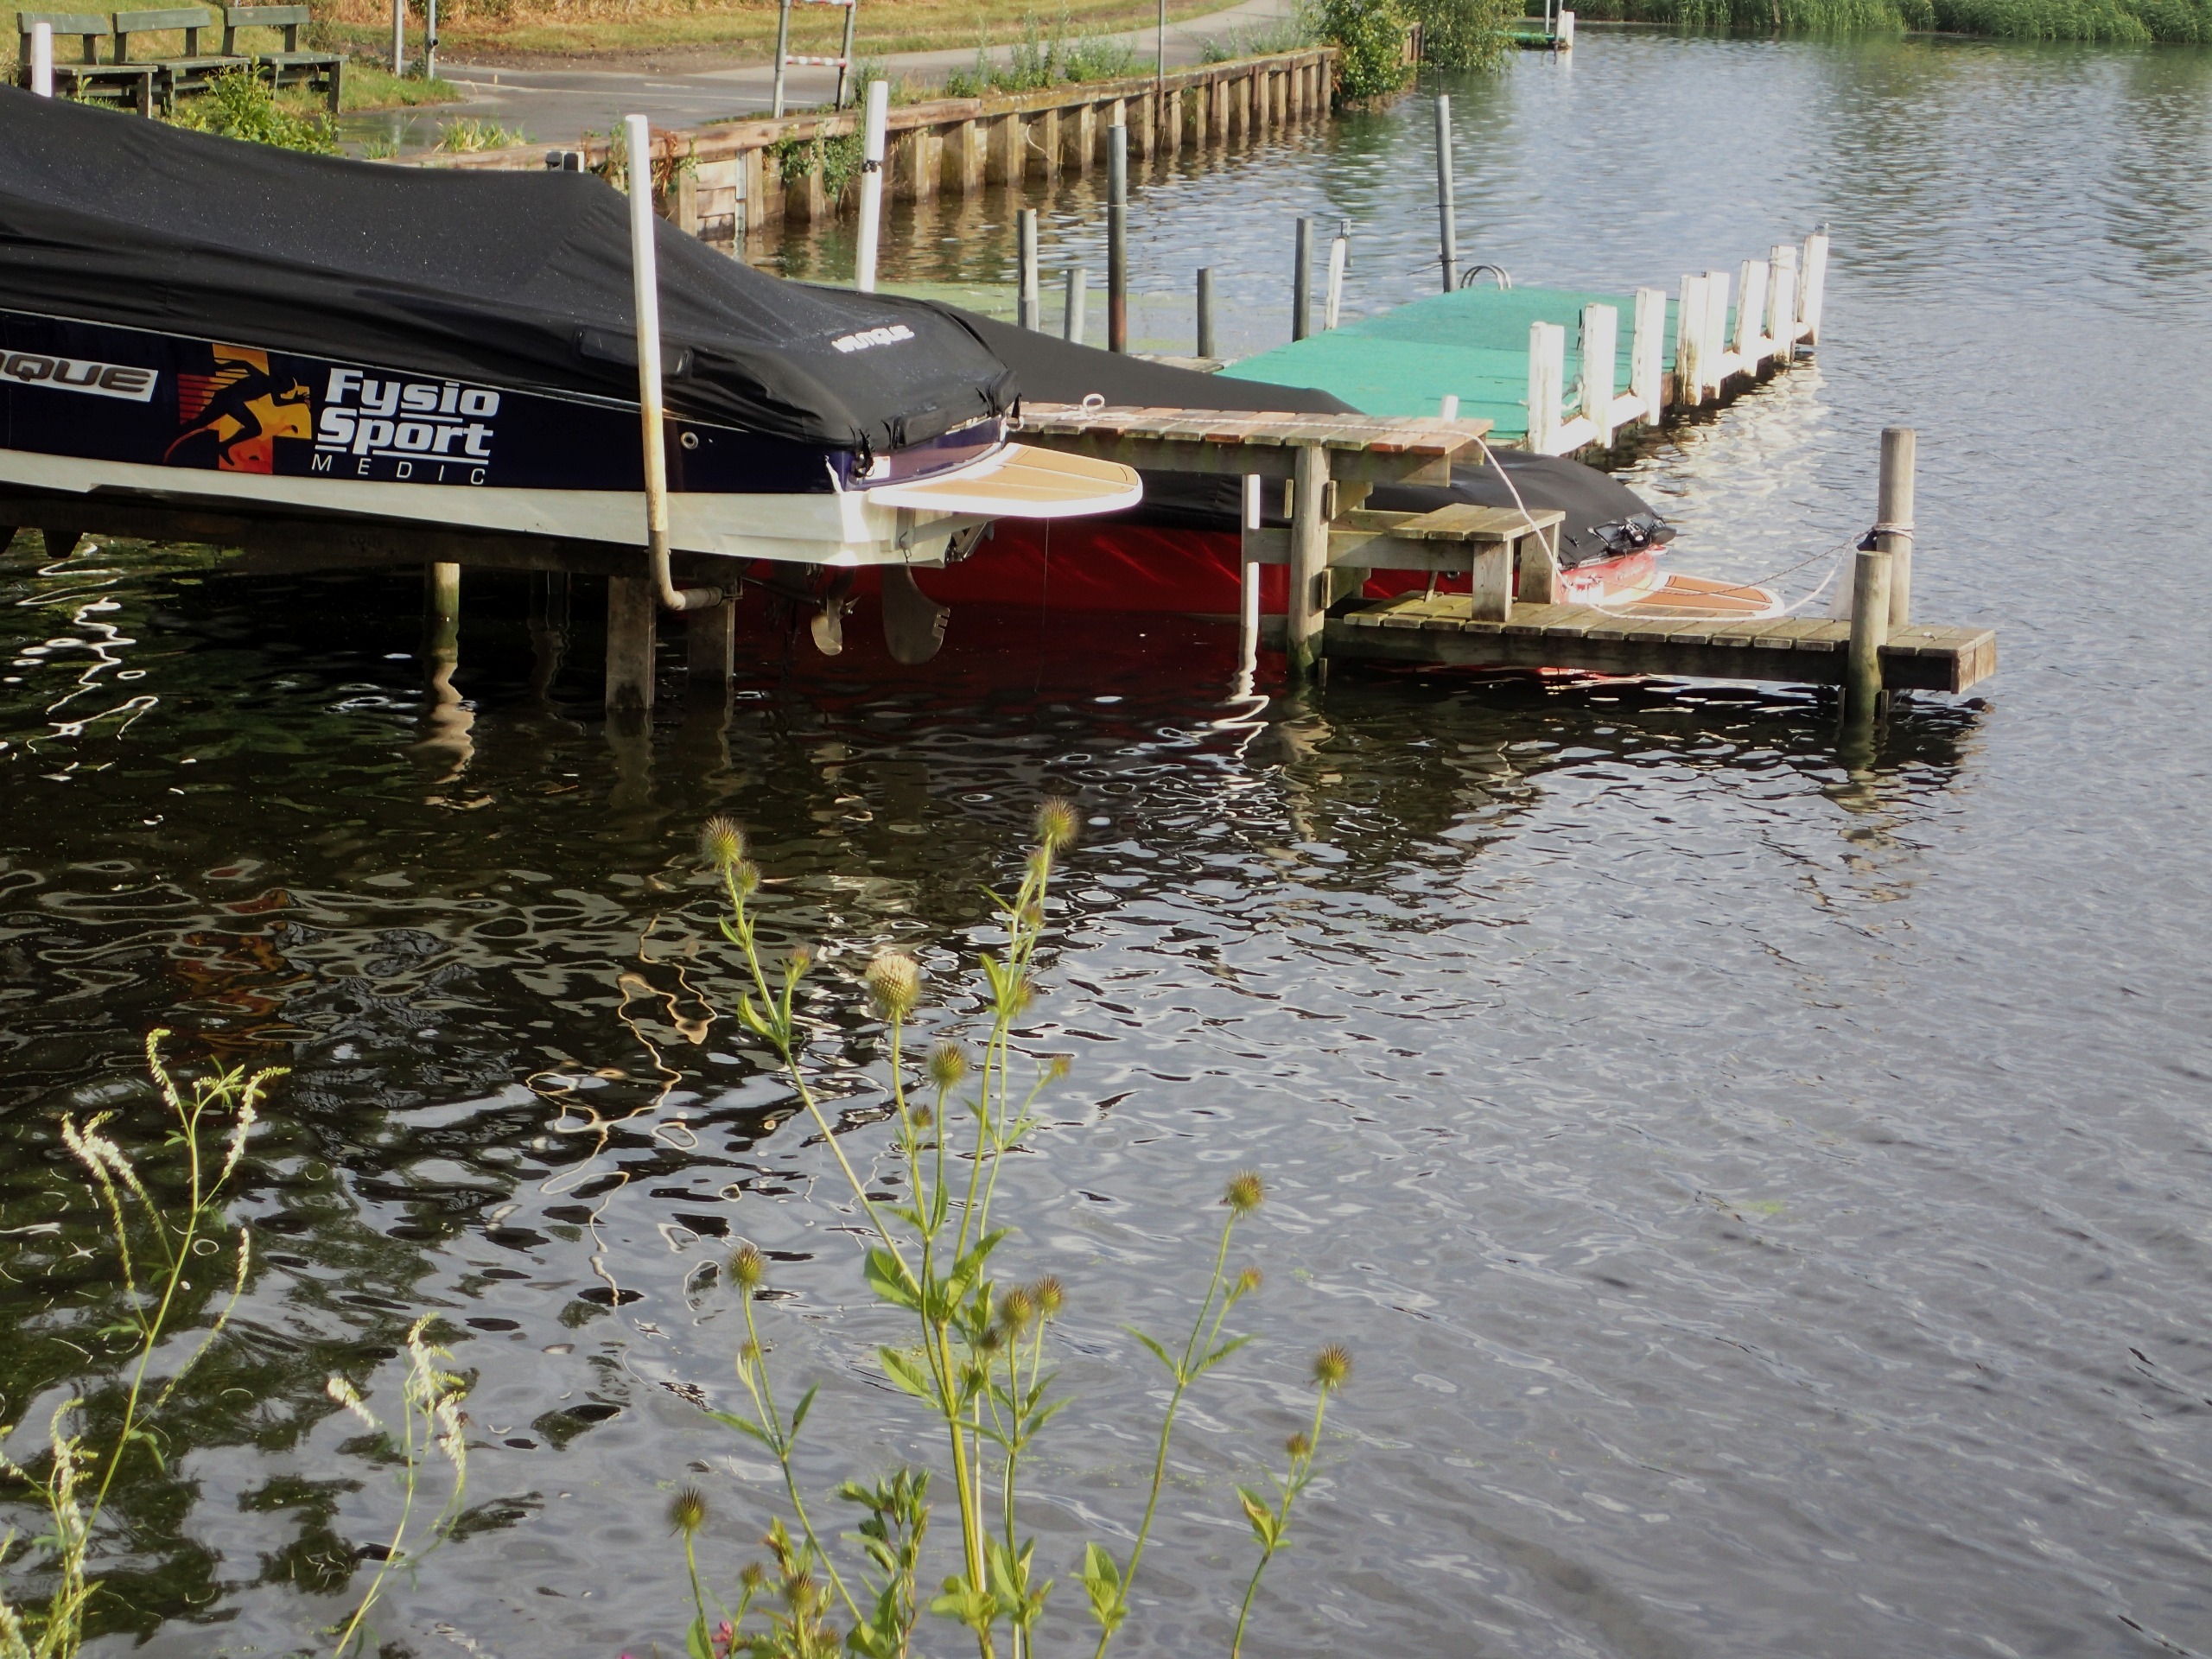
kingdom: Plantae
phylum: Tracheophyta
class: Magnoliopsida
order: Dipsacales
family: Caprifoliaceae
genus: Dipsacus
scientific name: Dipsacus strigosus
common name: Pindsvin-kartebolle
